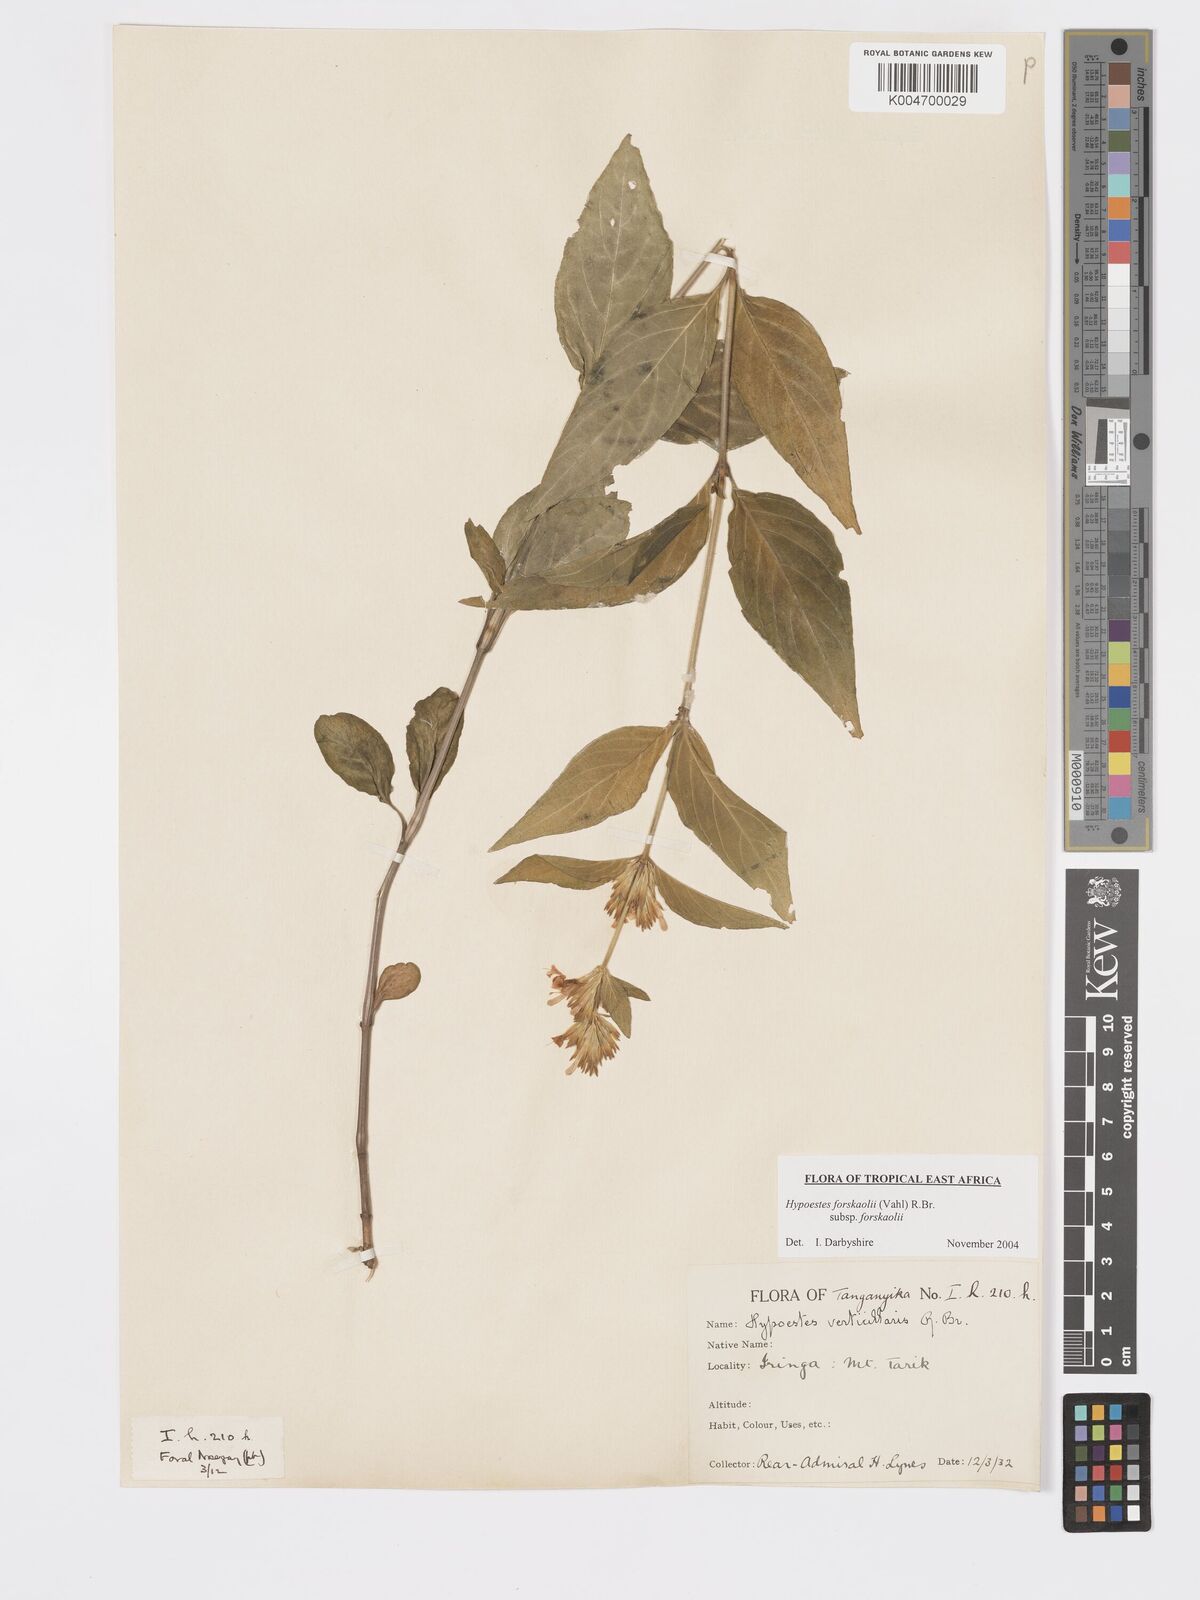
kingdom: Plantae
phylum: Tracheophyta
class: Magnoliopsida
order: Lamiales
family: Acanthaceae
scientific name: Acanthaceae
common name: Acanthaceae
